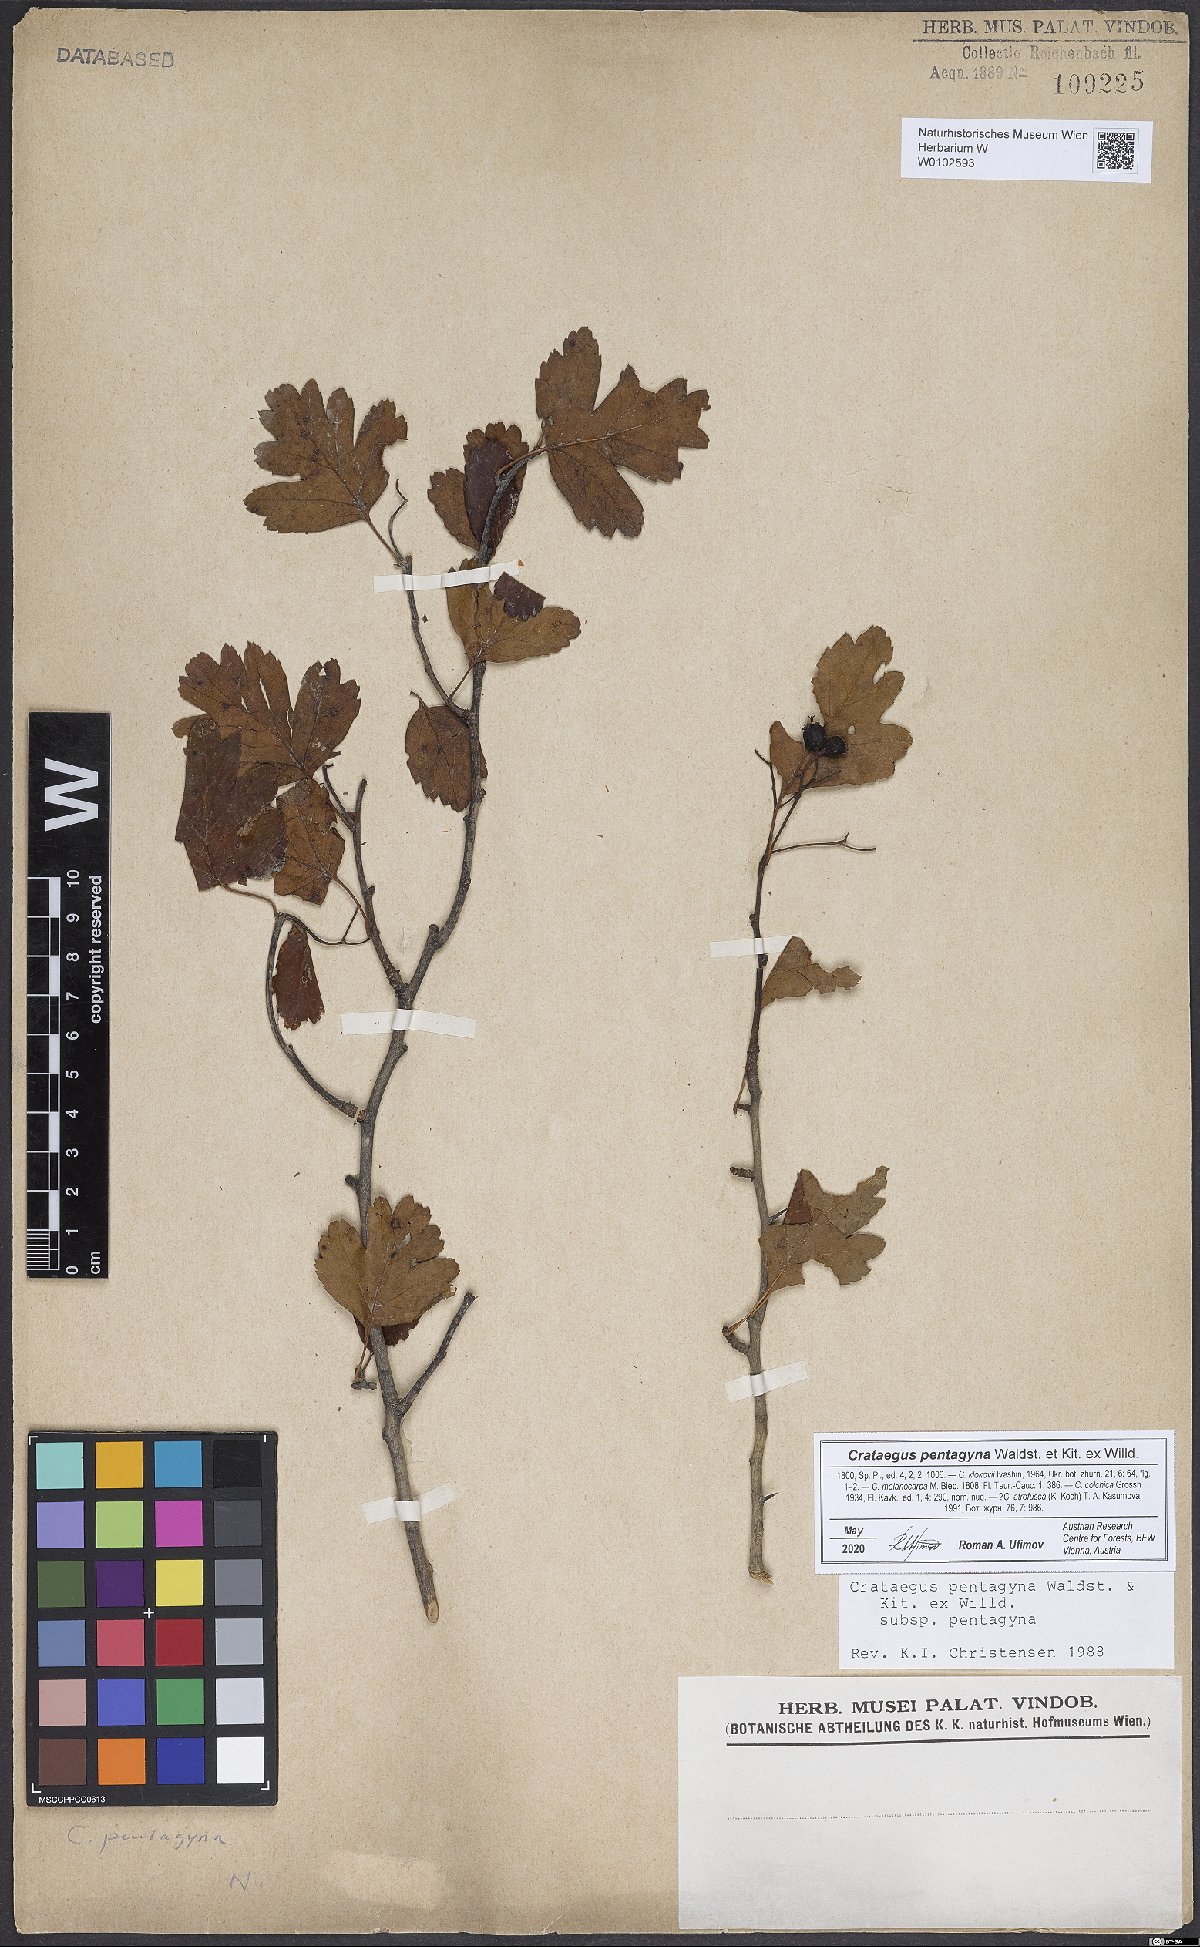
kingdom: Plantae
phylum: Tracheophyta
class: Magnoliopsida
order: Rosales
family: Rosaceae
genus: Crataegus
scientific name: Crataegus pentagyna
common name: Small-flowered black hawthorn
